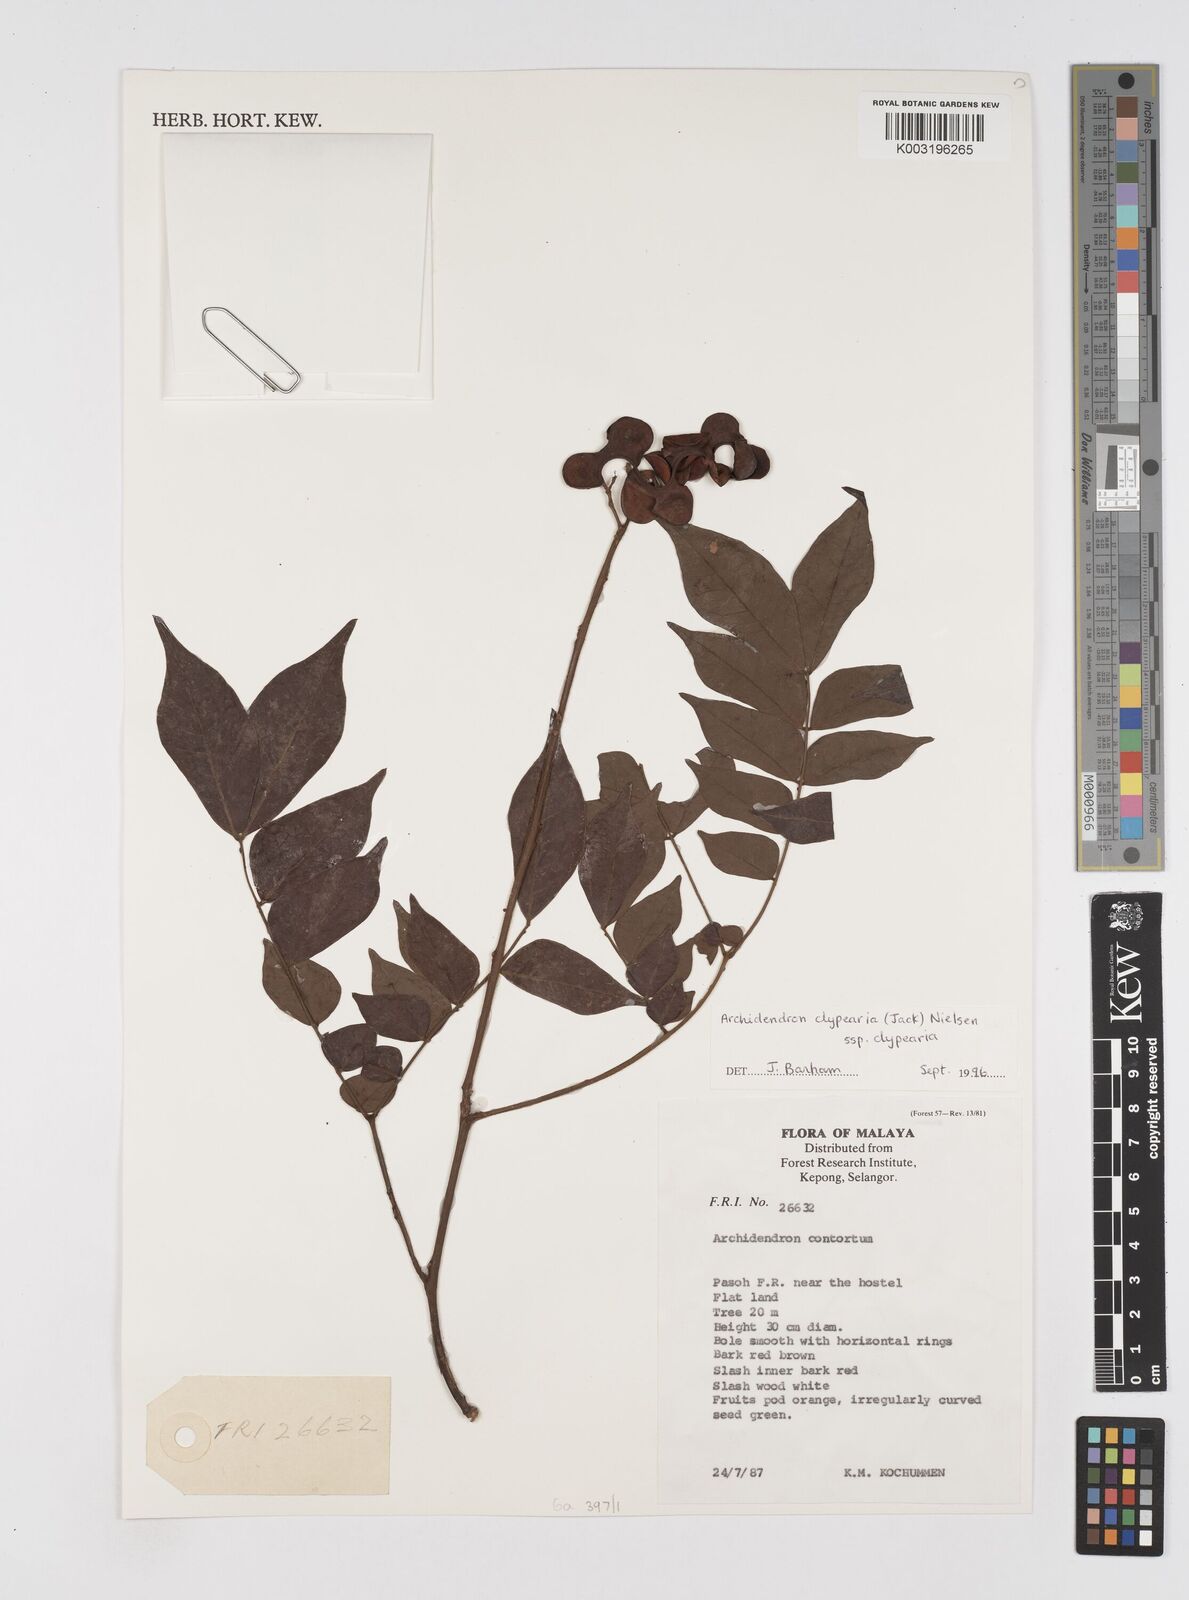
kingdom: Plantae
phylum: Tracheophyta
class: Magnoliopsida
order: Fabales
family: Fabaceae
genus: Archidendron
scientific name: Archidendron clypearia
